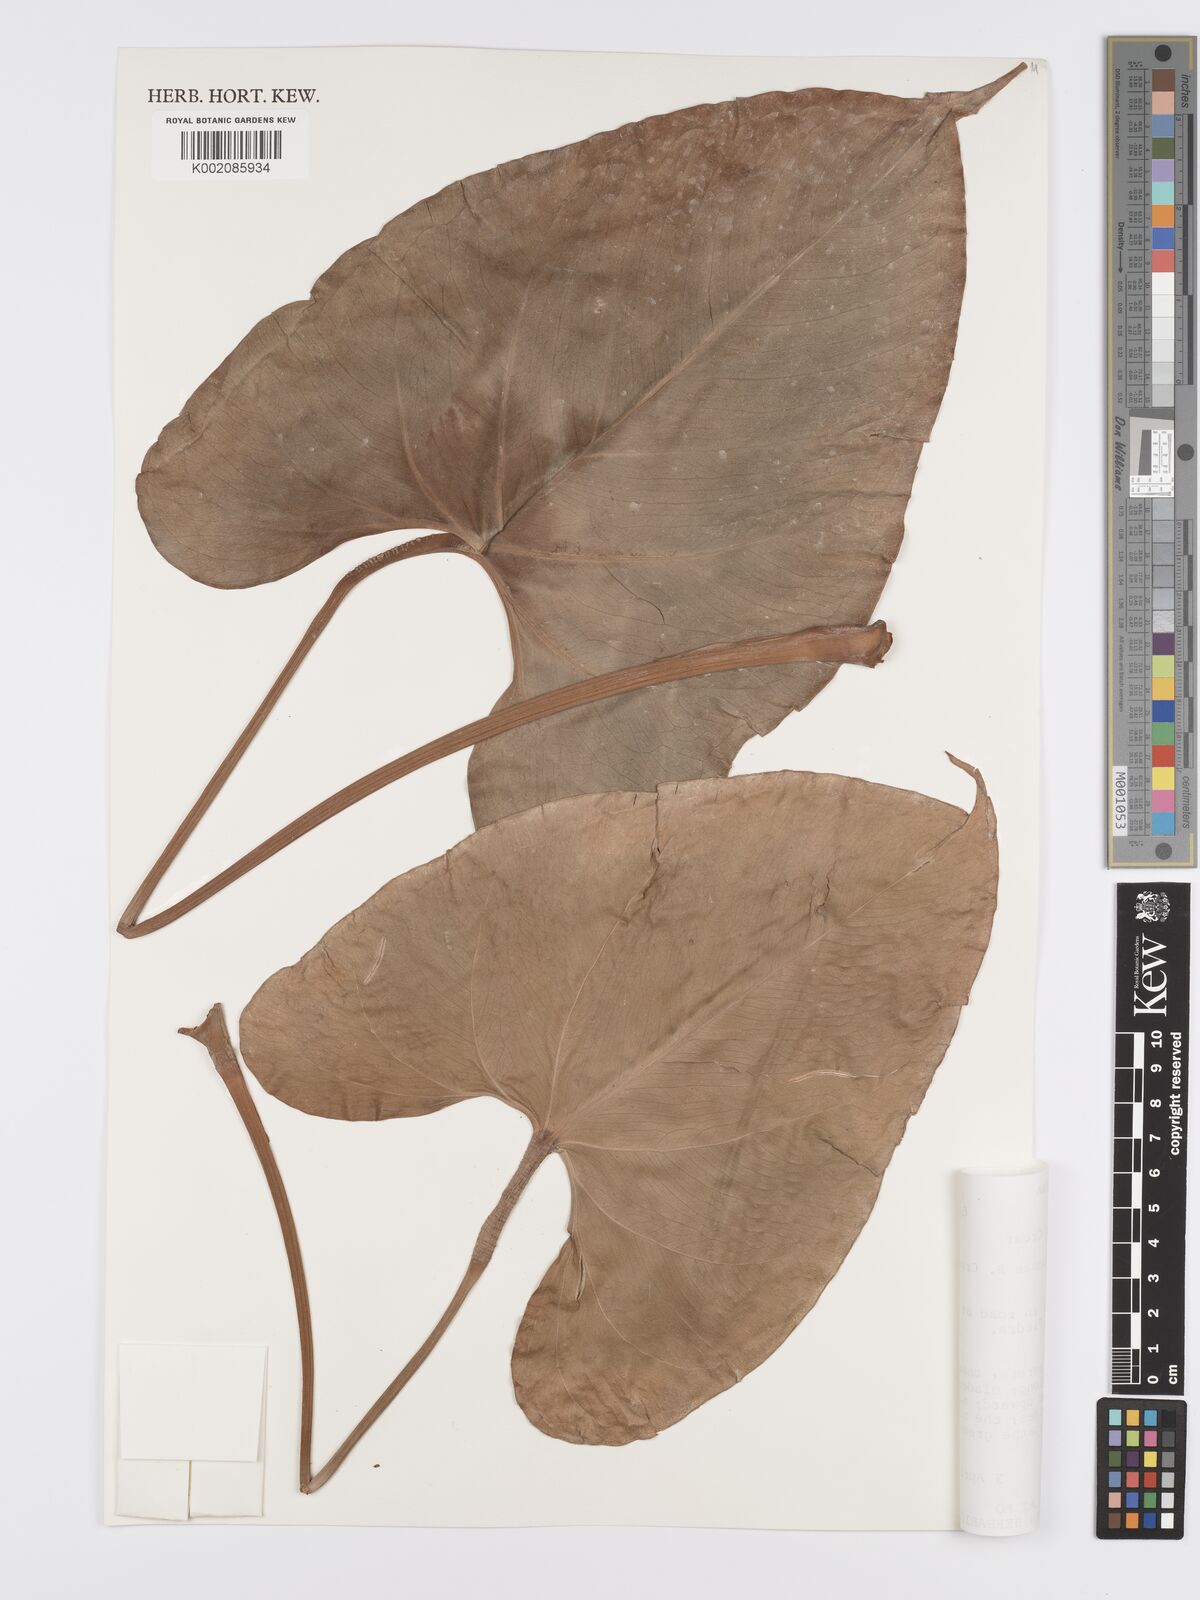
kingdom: Plantae
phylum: Tracheophyta
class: Liliopsida
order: Alismatales
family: Araceae
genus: Anthurium
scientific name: Anthurium curvispadix
